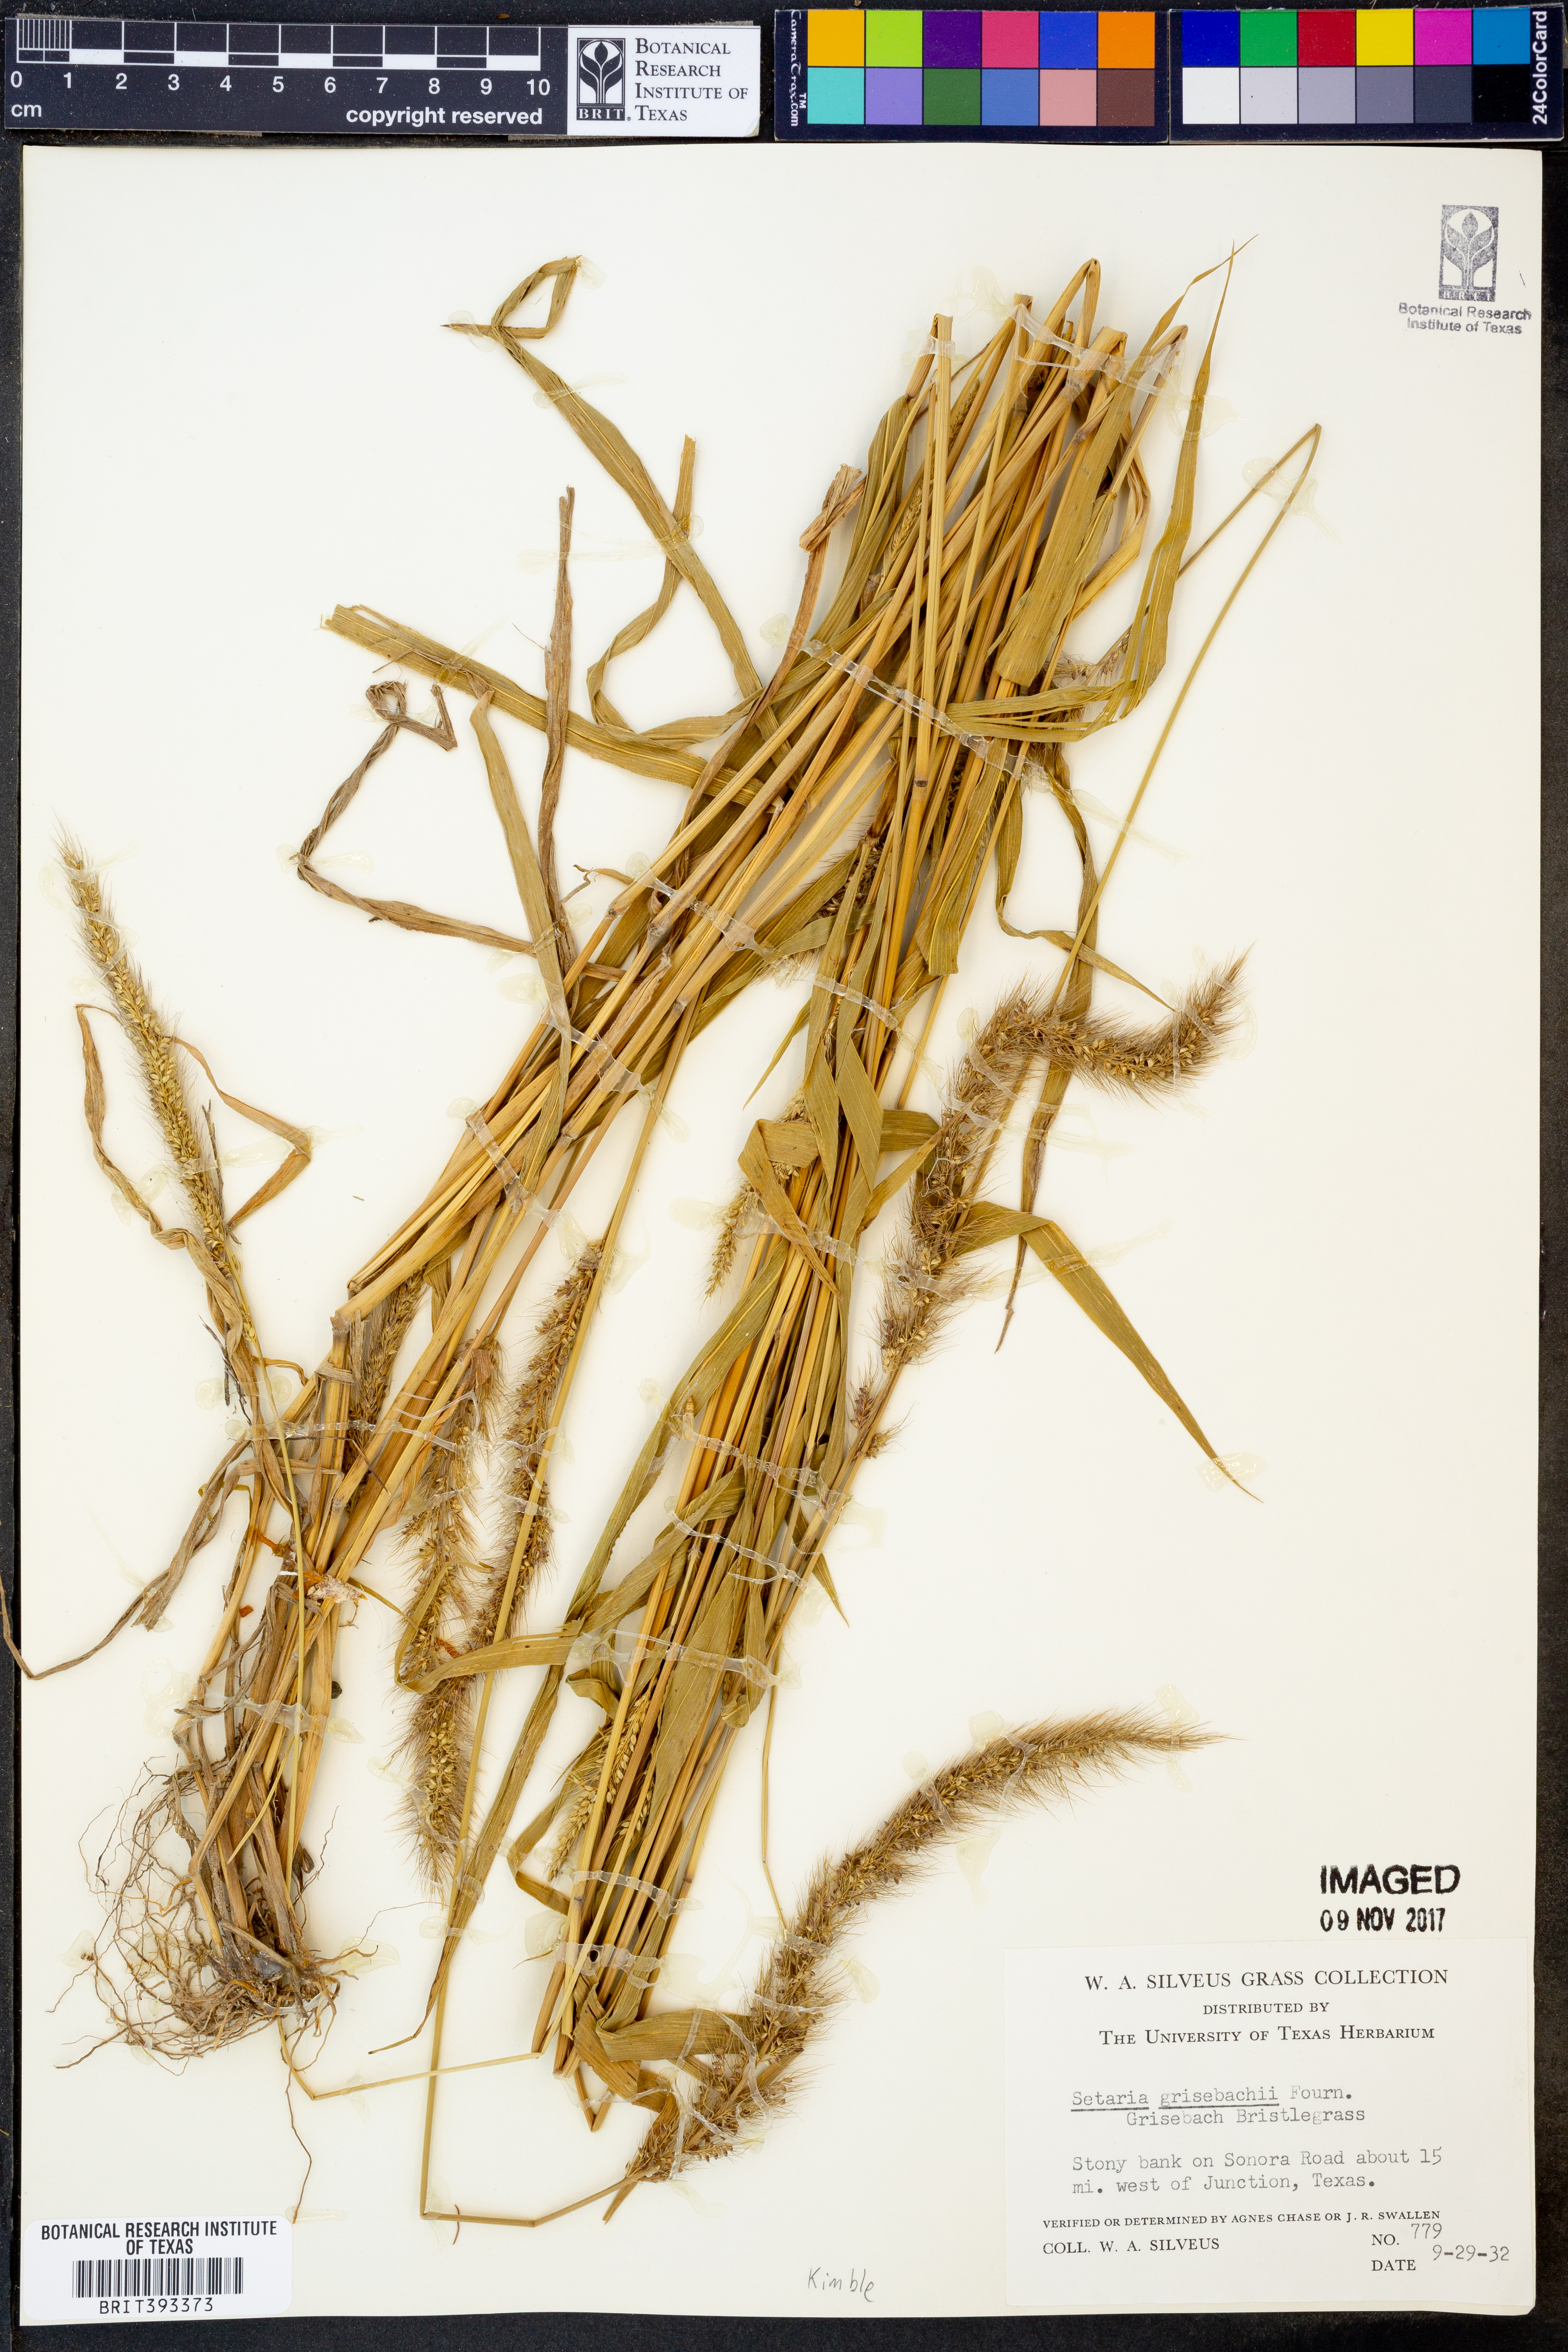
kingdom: Plantae
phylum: Tracheophyta
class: Liliopsida
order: Poales
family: Poaceae
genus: Setaria
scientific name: Setaria grisebachii
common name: Grisebach's bristle grass
